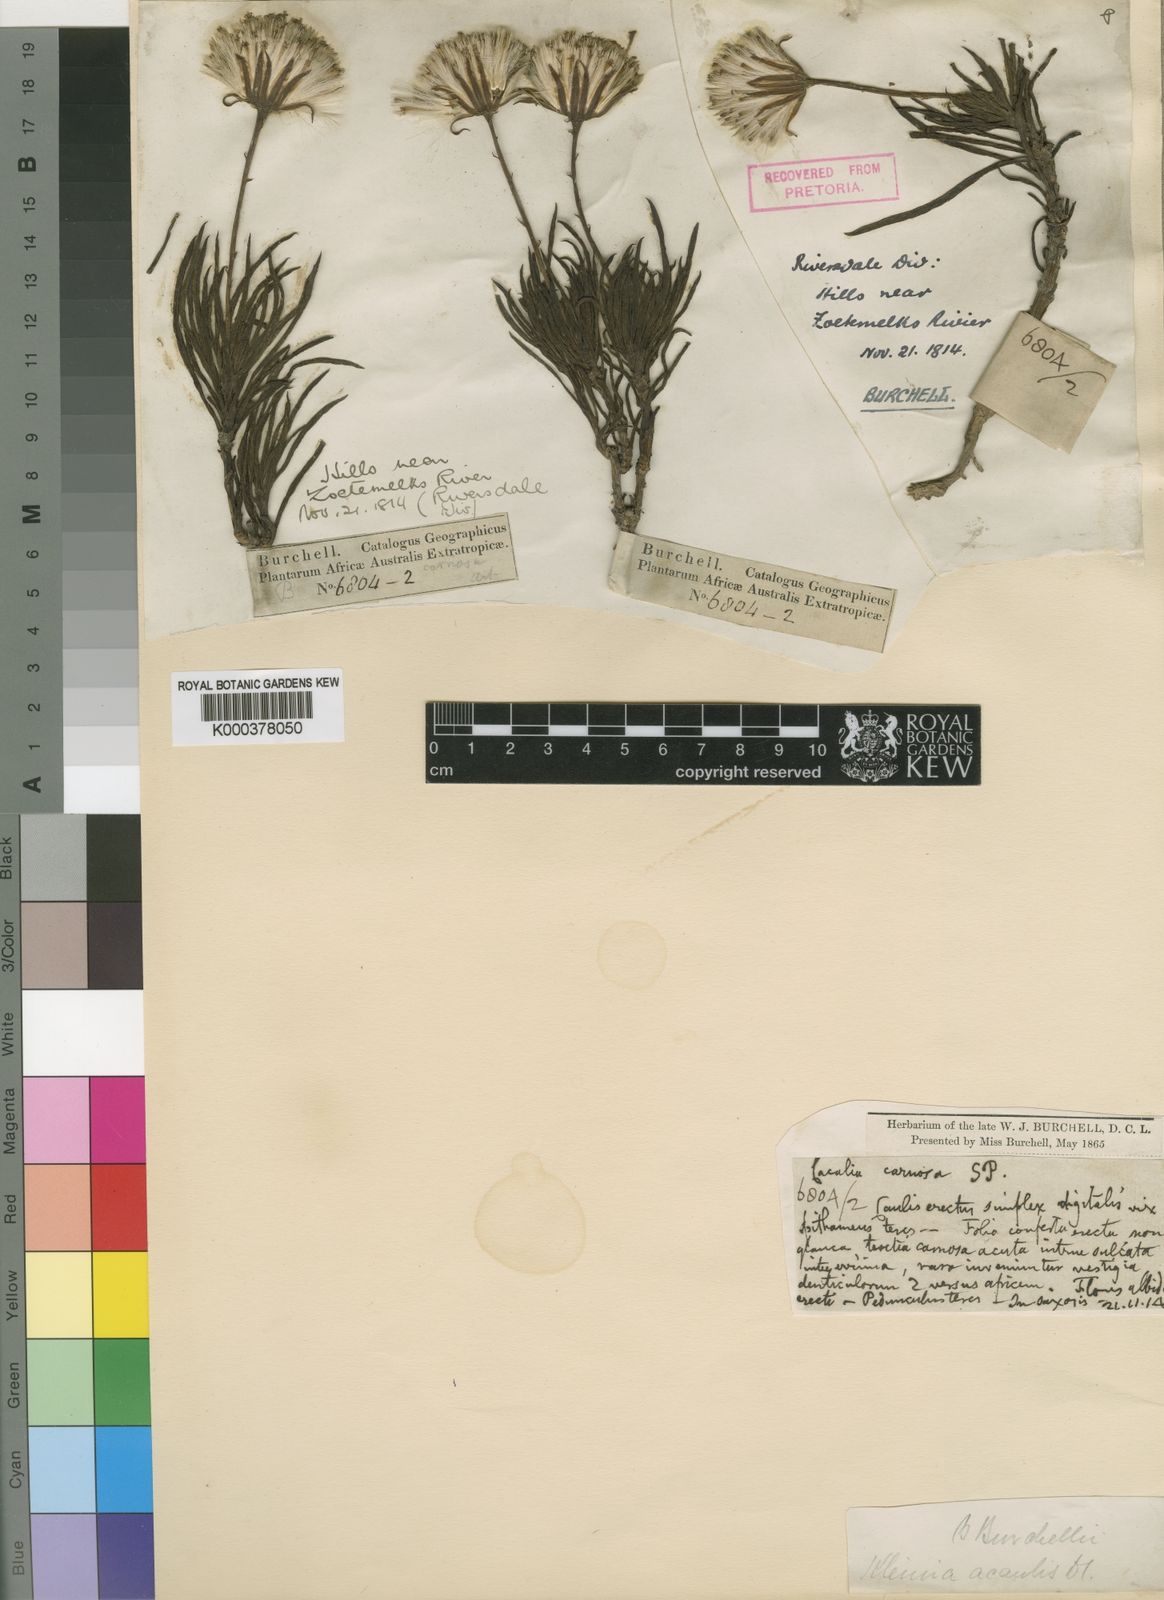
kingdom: Plantae
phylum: Tracheophyta
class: Magnoliopsida
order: Asterales
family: Asteraceae
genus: Senecio
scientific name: Senecio burchellii
